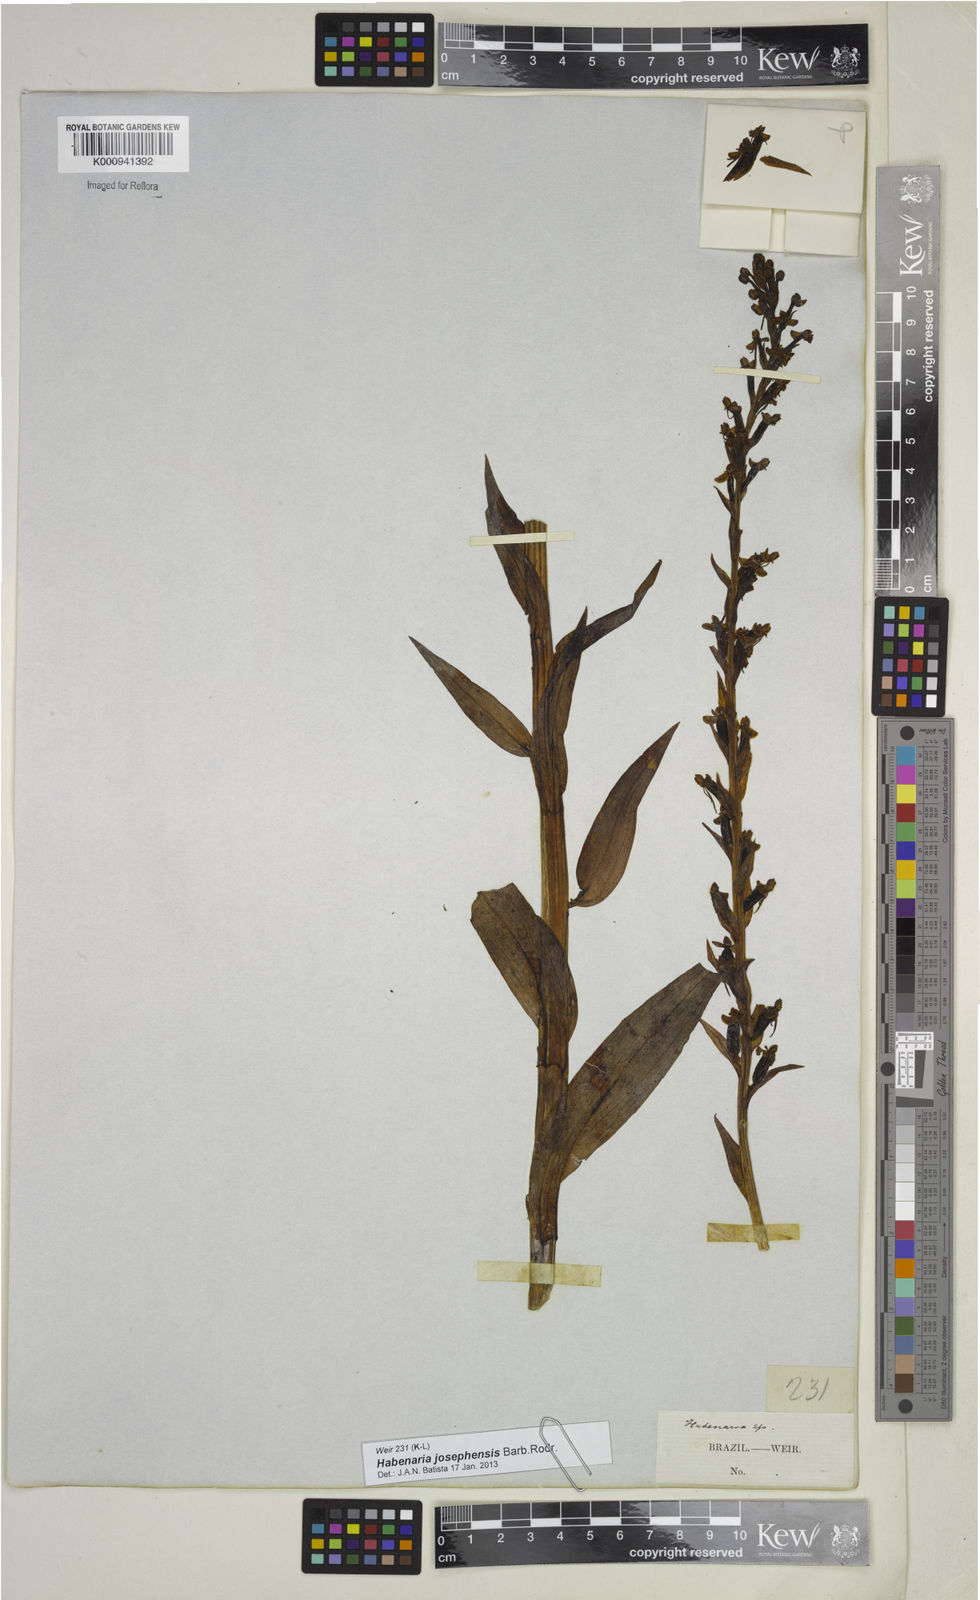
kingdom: Plantae
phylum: Tracheophyta
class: Liliopsida
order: Asparagales
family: Orchidaceae
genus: Habenaria
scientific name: Habenaria josephensis
